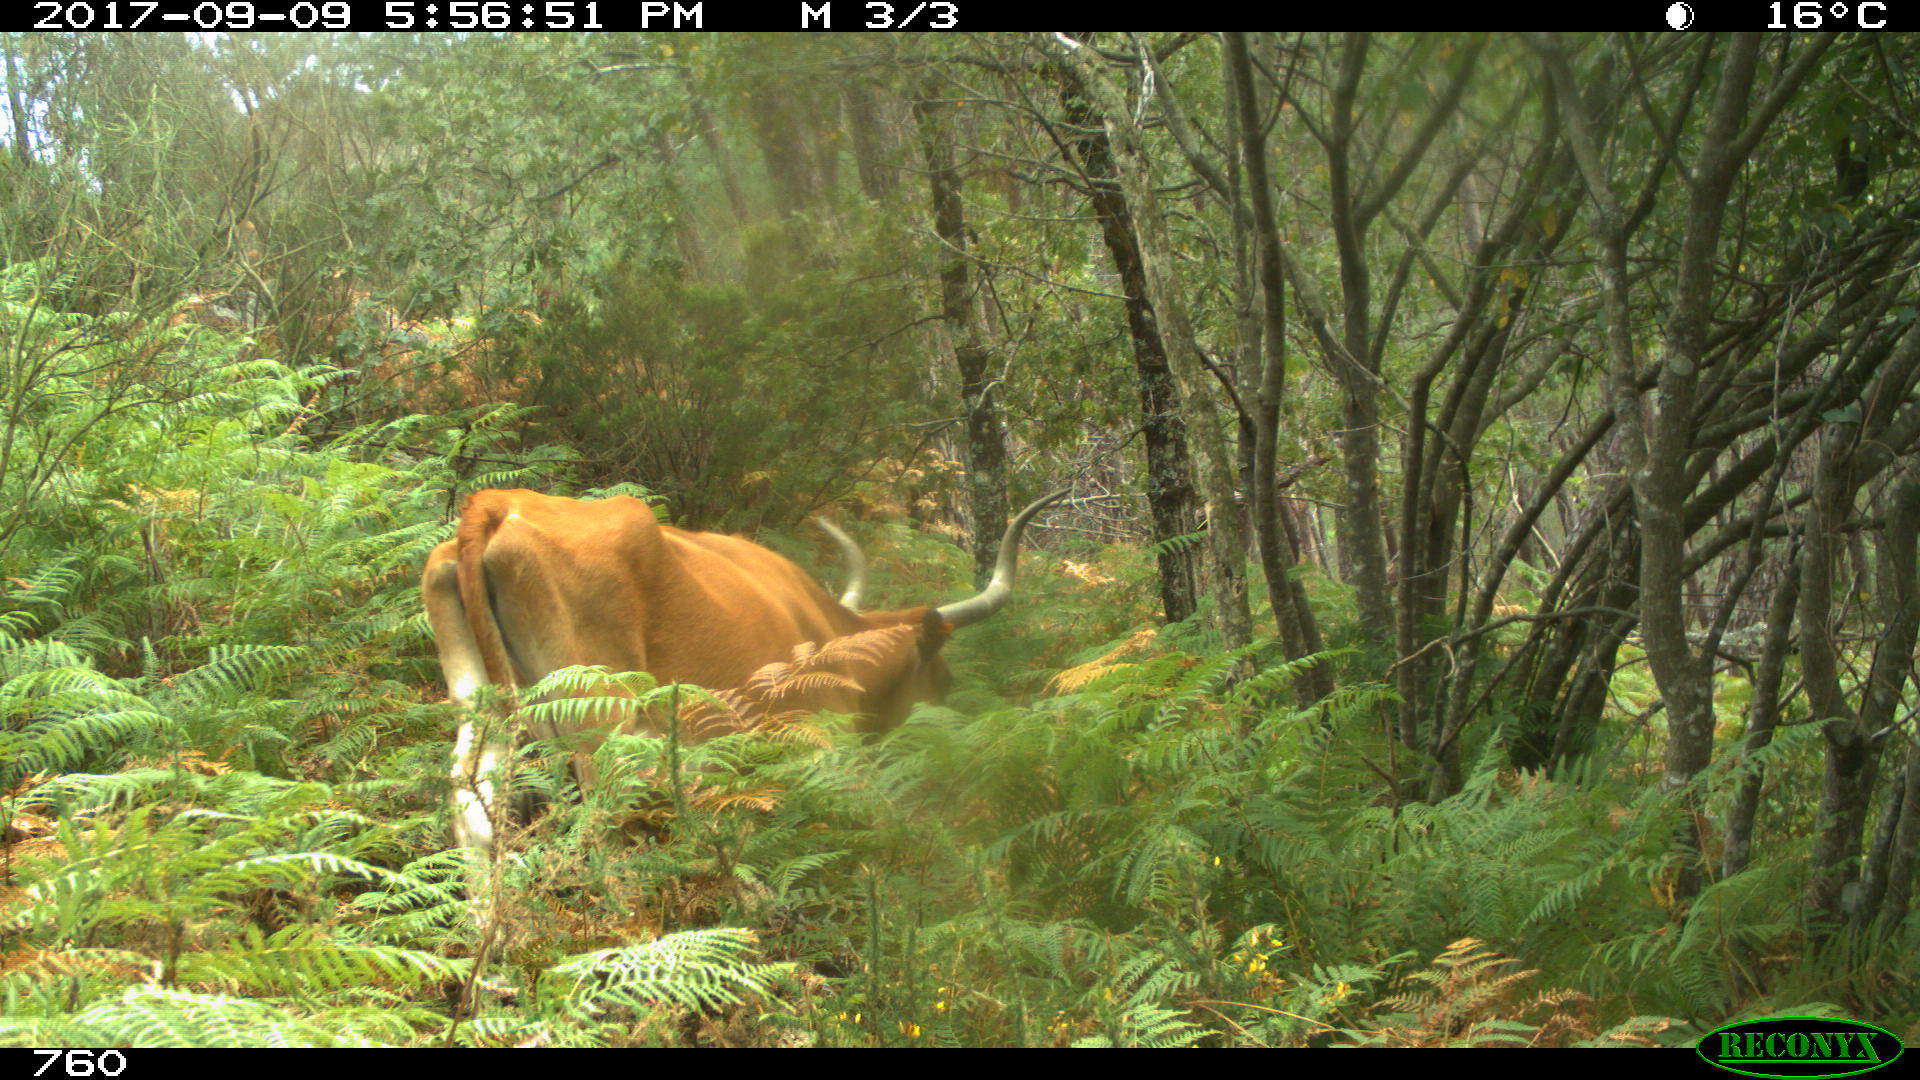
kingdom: Animalia
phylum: Chordata
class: Mammalia
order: Artiodactyla
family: Bovidae
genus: Bos
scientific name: Bos taurus
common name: Domesticated cattle
